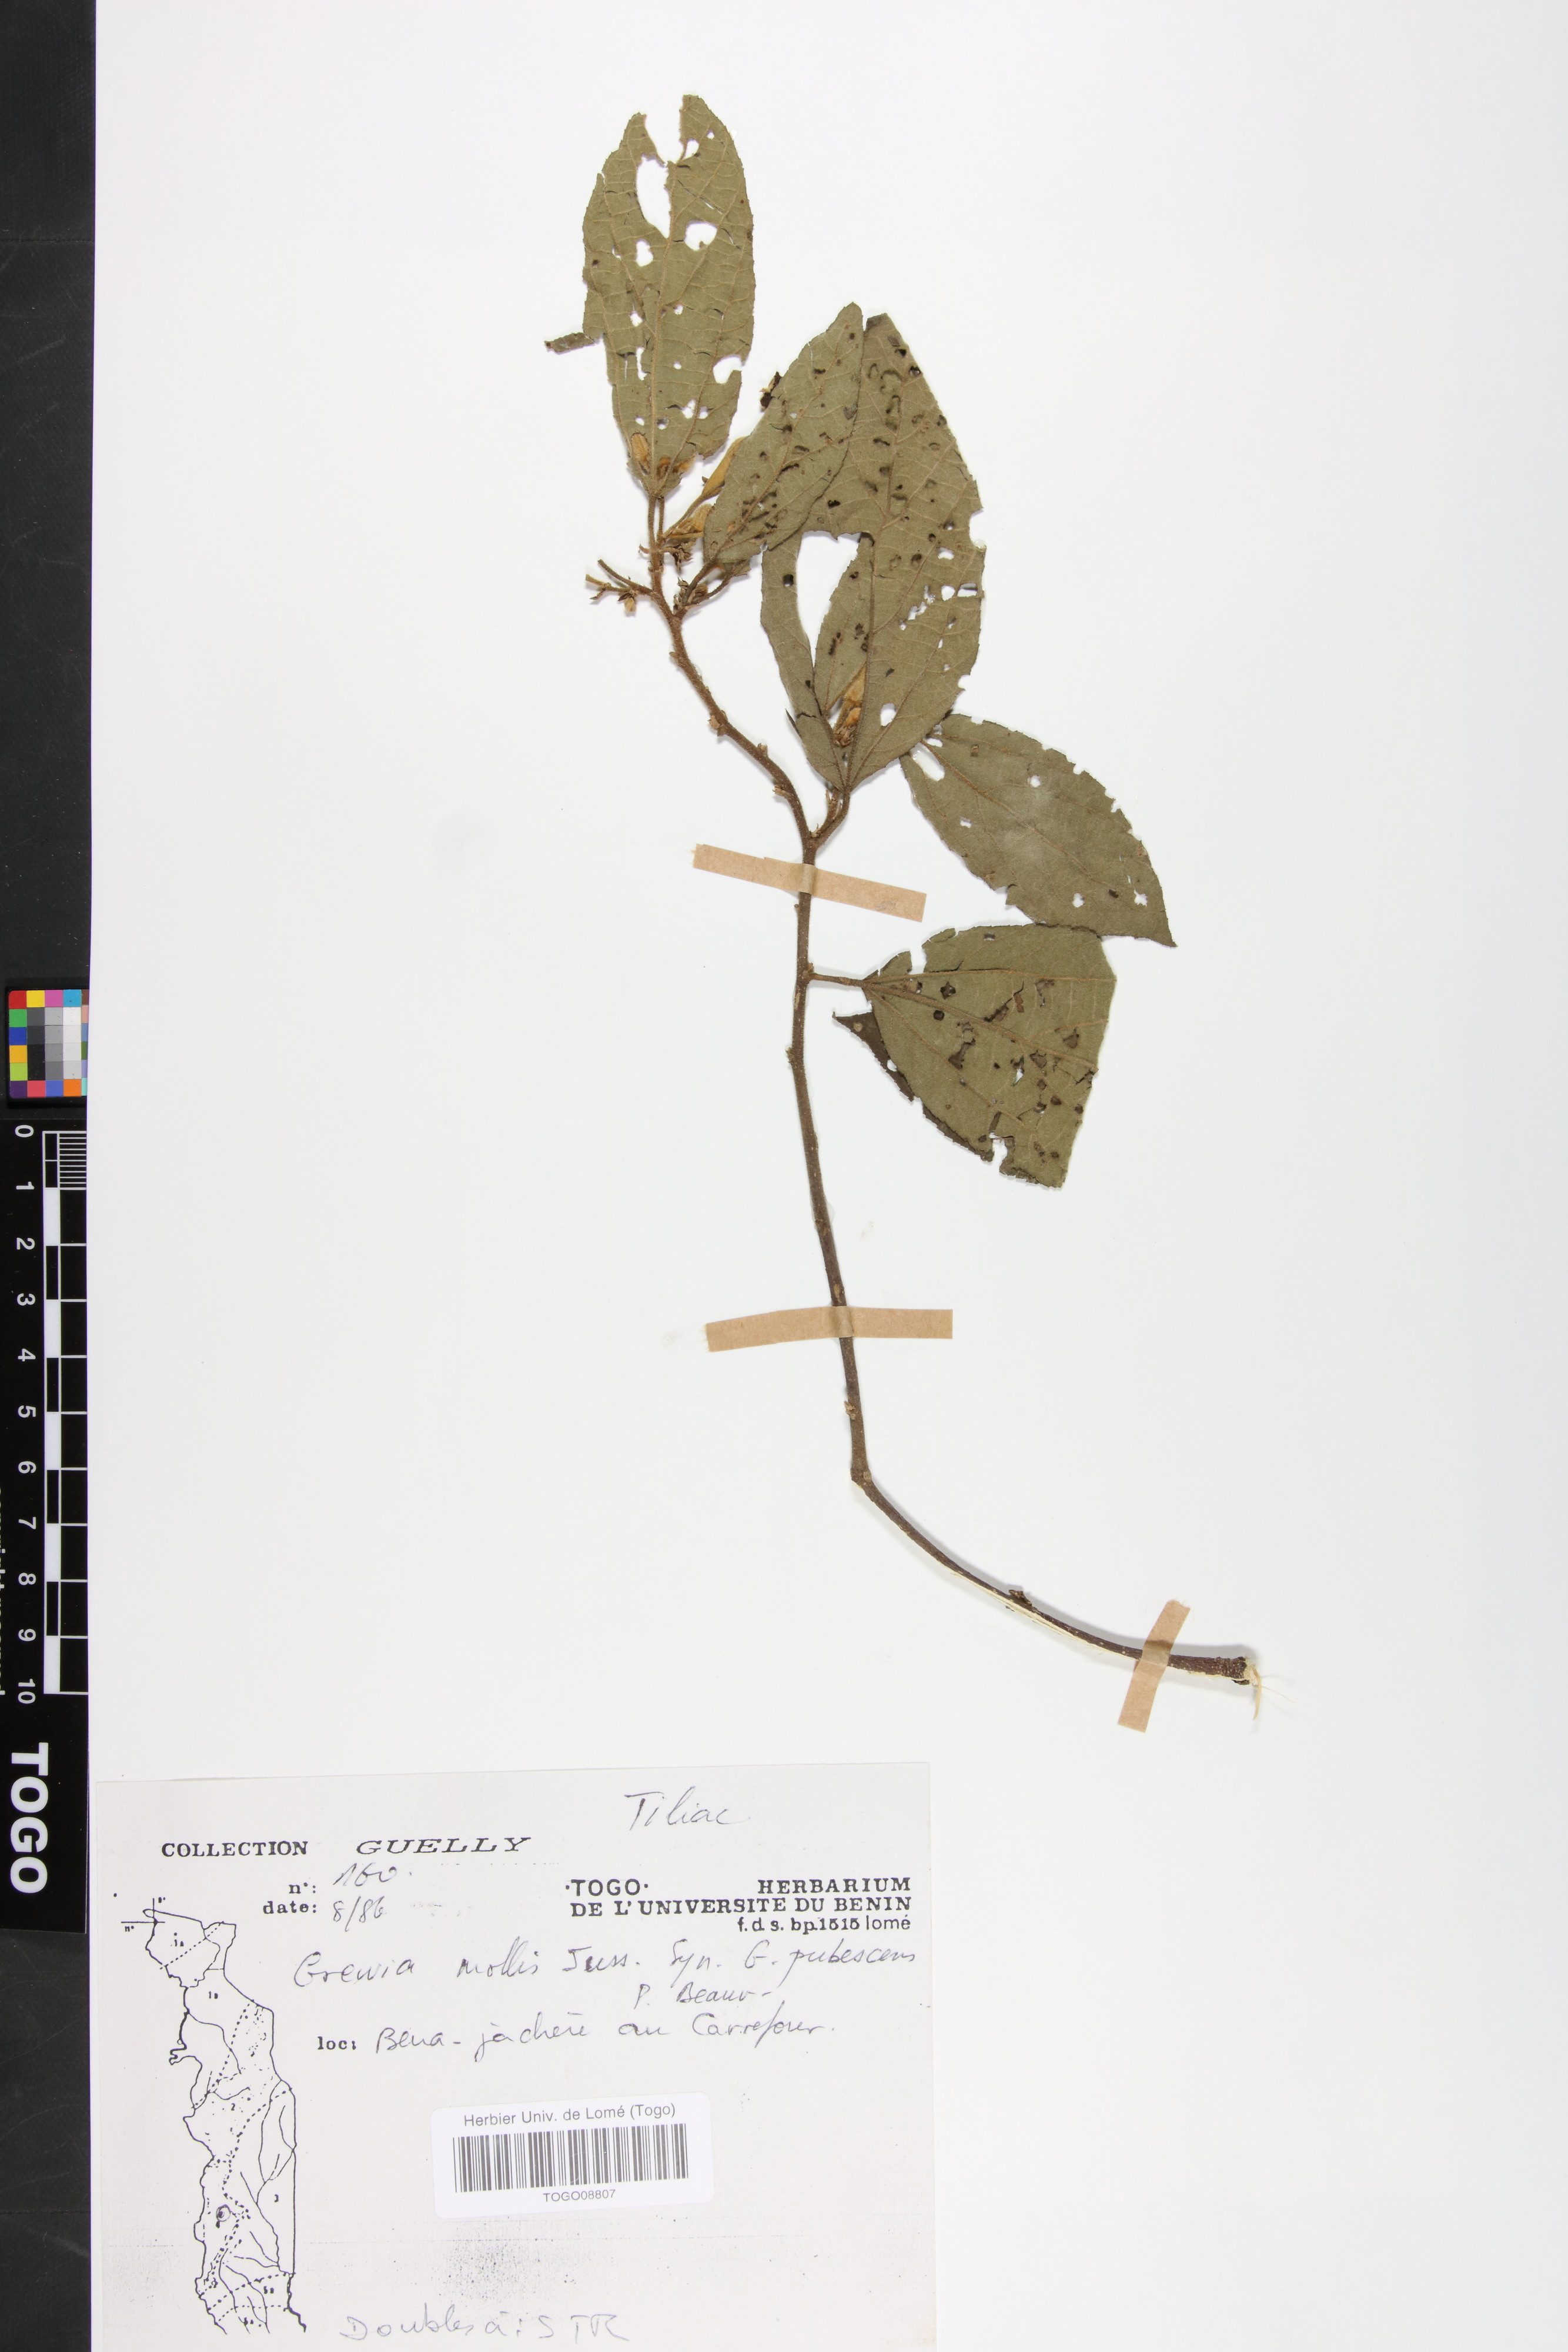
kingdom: Plantae
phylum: Tracheophyta
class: Magnoliopsida
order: Malvales
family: Malvaceae
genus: Grewia
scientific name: Grewia mollis
